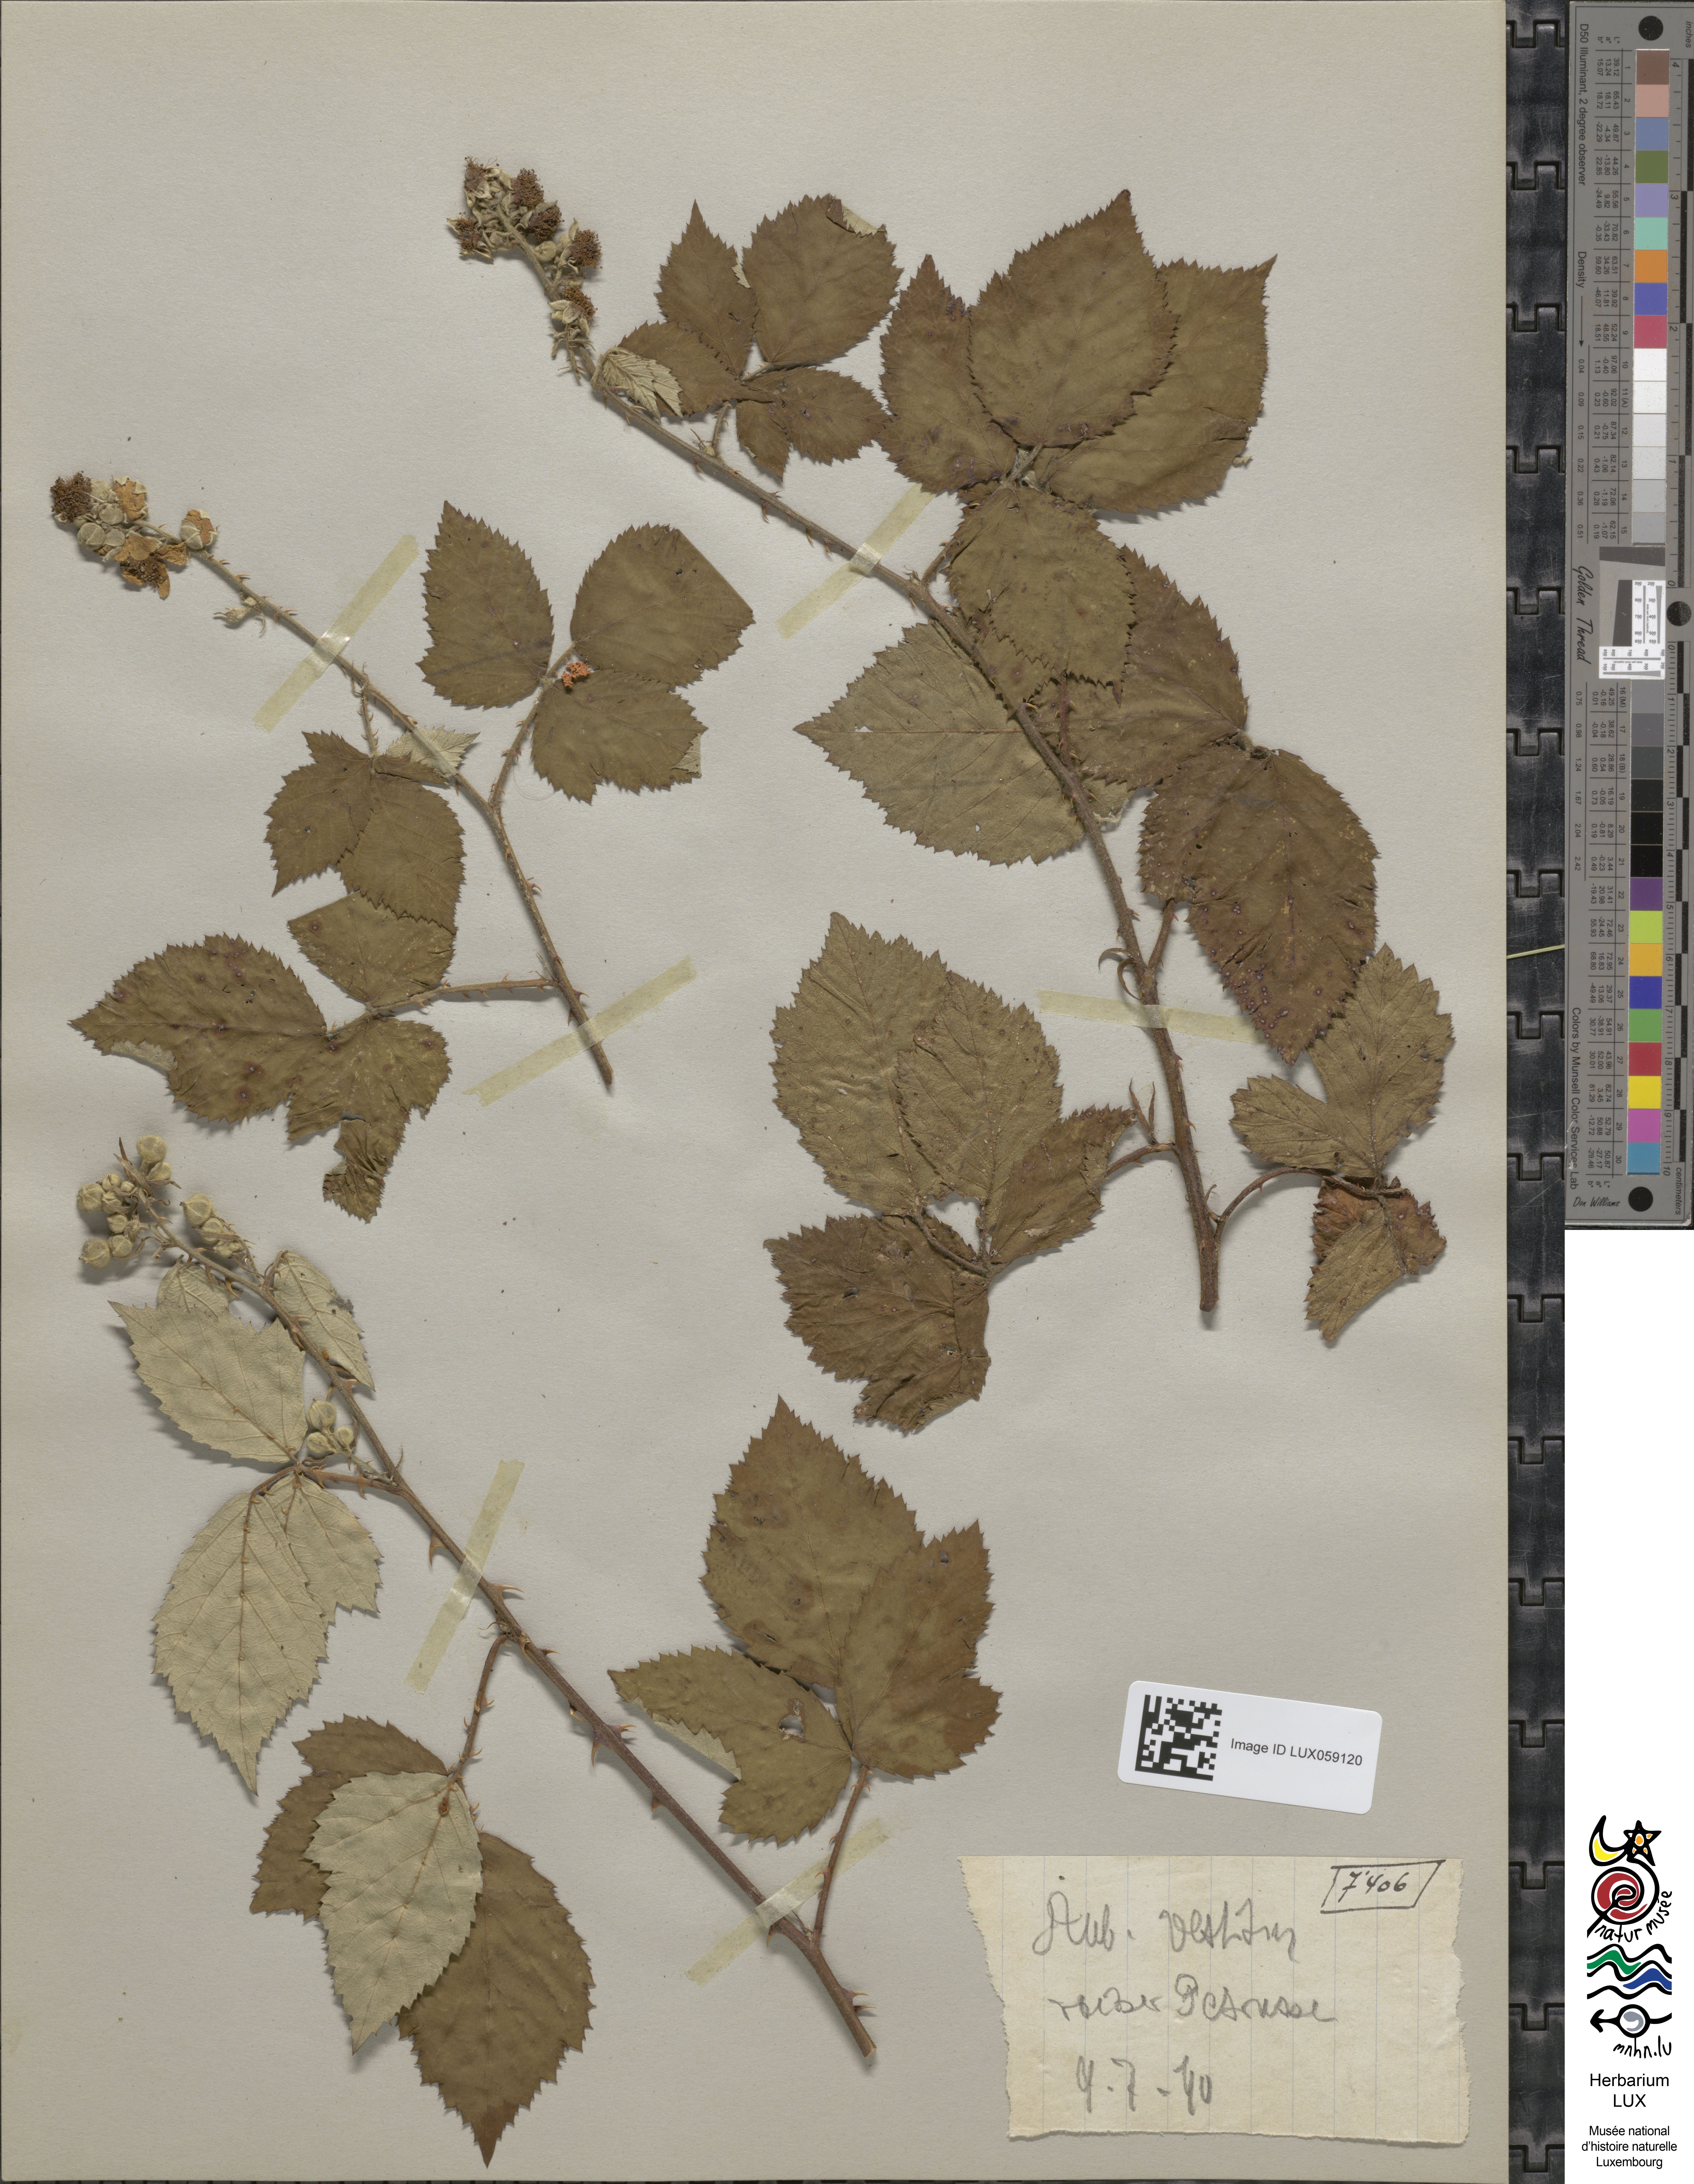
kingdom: Plantae
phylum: Tracheophyta
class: Magnoliopsida
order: Rosales
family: Rosaceae
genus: Rubus
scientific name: Rubus vestitus
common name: European blackberry
